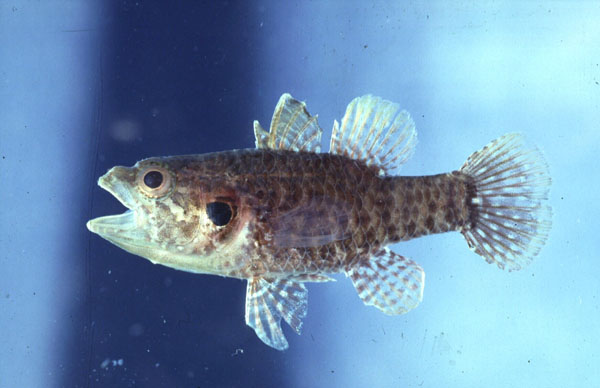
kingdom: Animalia
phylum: Chordata
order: Perciformes
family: Apogonidae
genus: Fowleria
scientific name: Fowleria aurita
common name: Crosseyed cardinalfish
